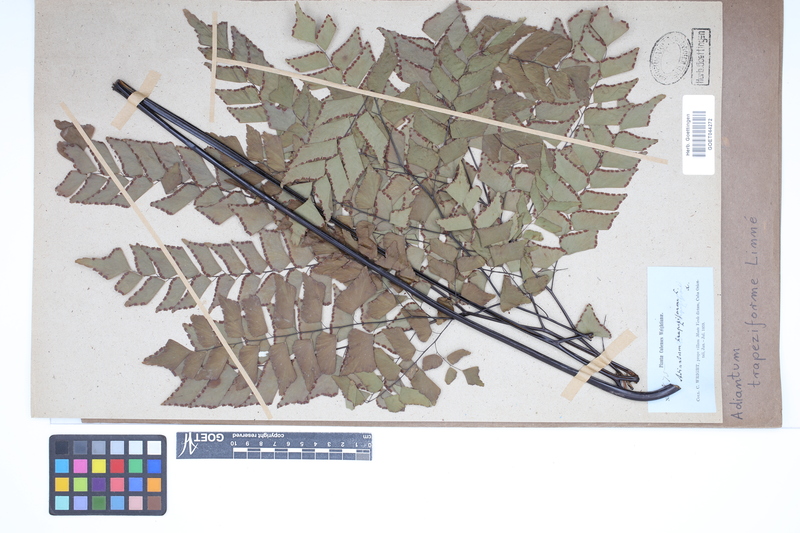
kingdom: Plantae
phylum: Tracheophyta
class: Polypodiopsida
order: Polypodiales
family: Pteridaceae
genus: Adiantum
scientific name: Adiantum trapeziforme
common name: Diamond maidenhair
